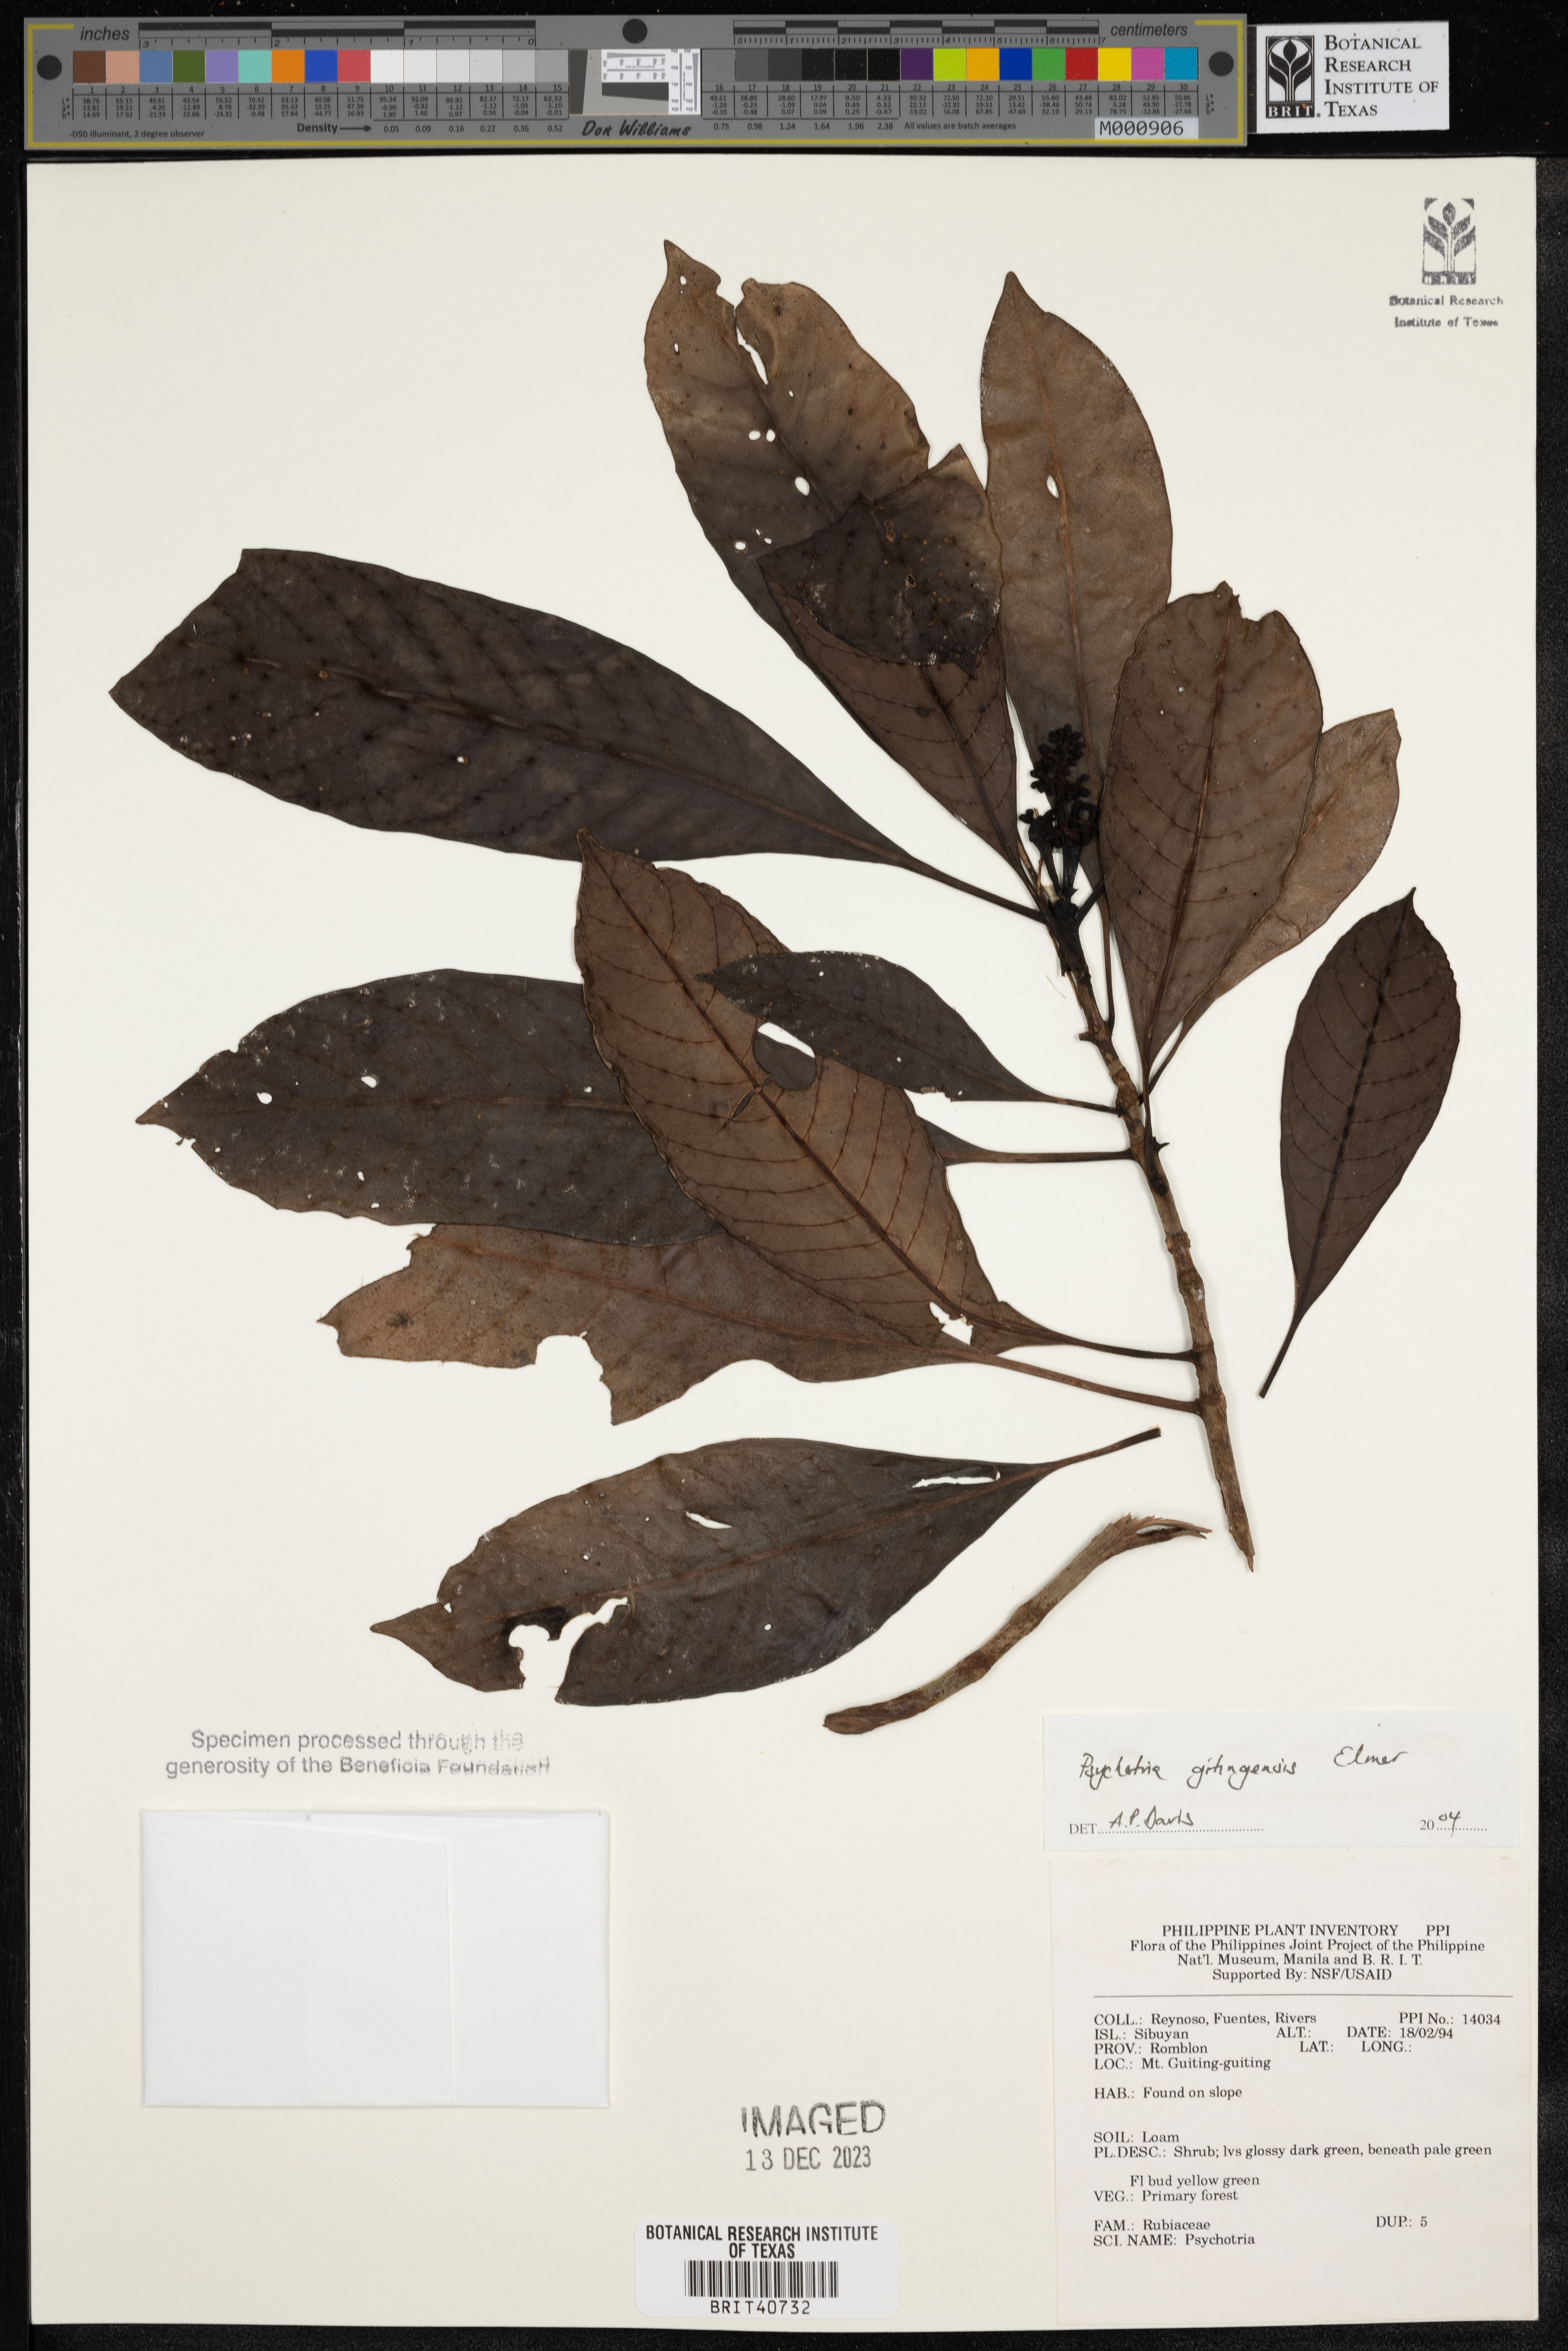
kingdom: Plantae
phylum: Tracheophyta
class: Magnoliopsida
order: Gentianales
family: Rubiaceae
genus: Psychotria
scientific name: Psychotria gitingensis
